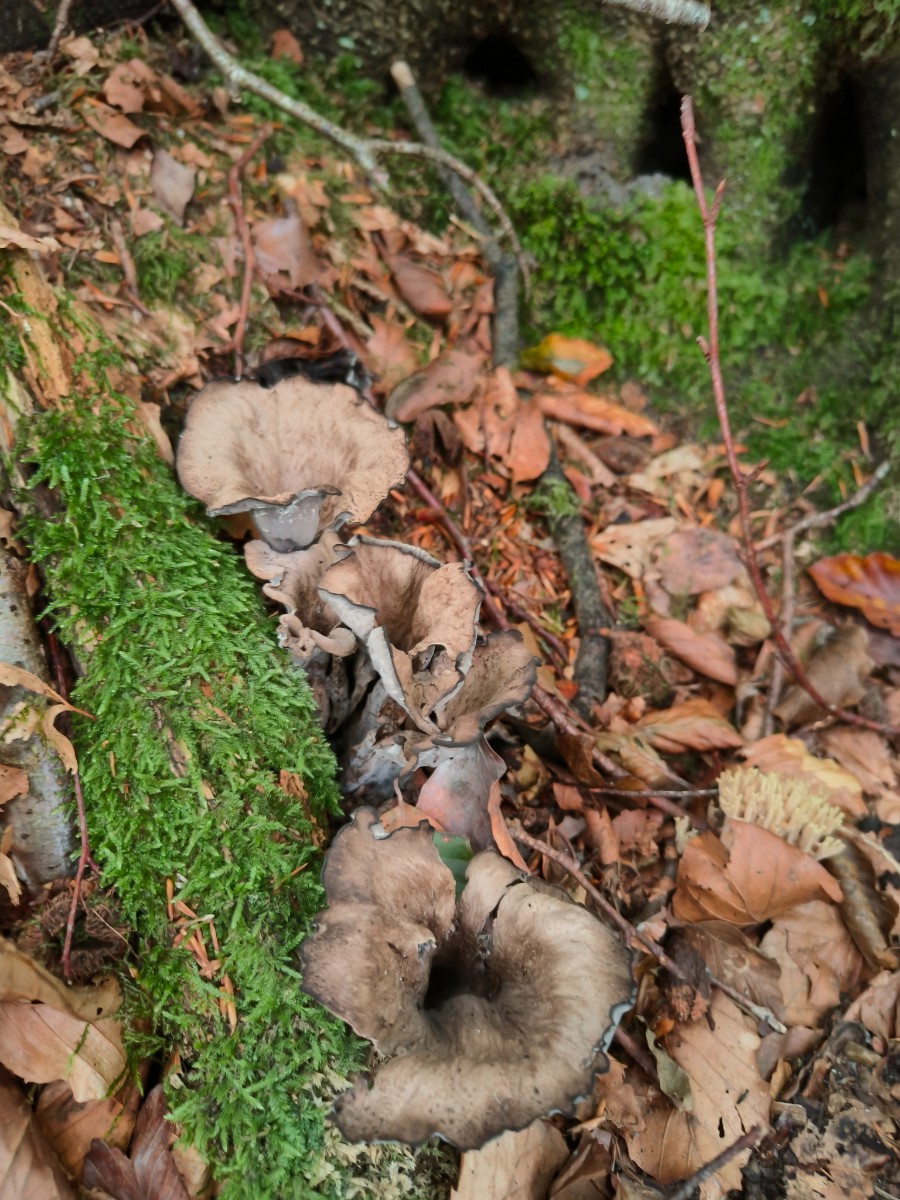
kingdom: Fungi
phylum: Basidiomycota
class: Agaricomycetes
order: Cantharellales
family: Hydnaceae
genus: Craterellus
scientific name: Craterellus cornucopioides
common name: trompetsvamp
